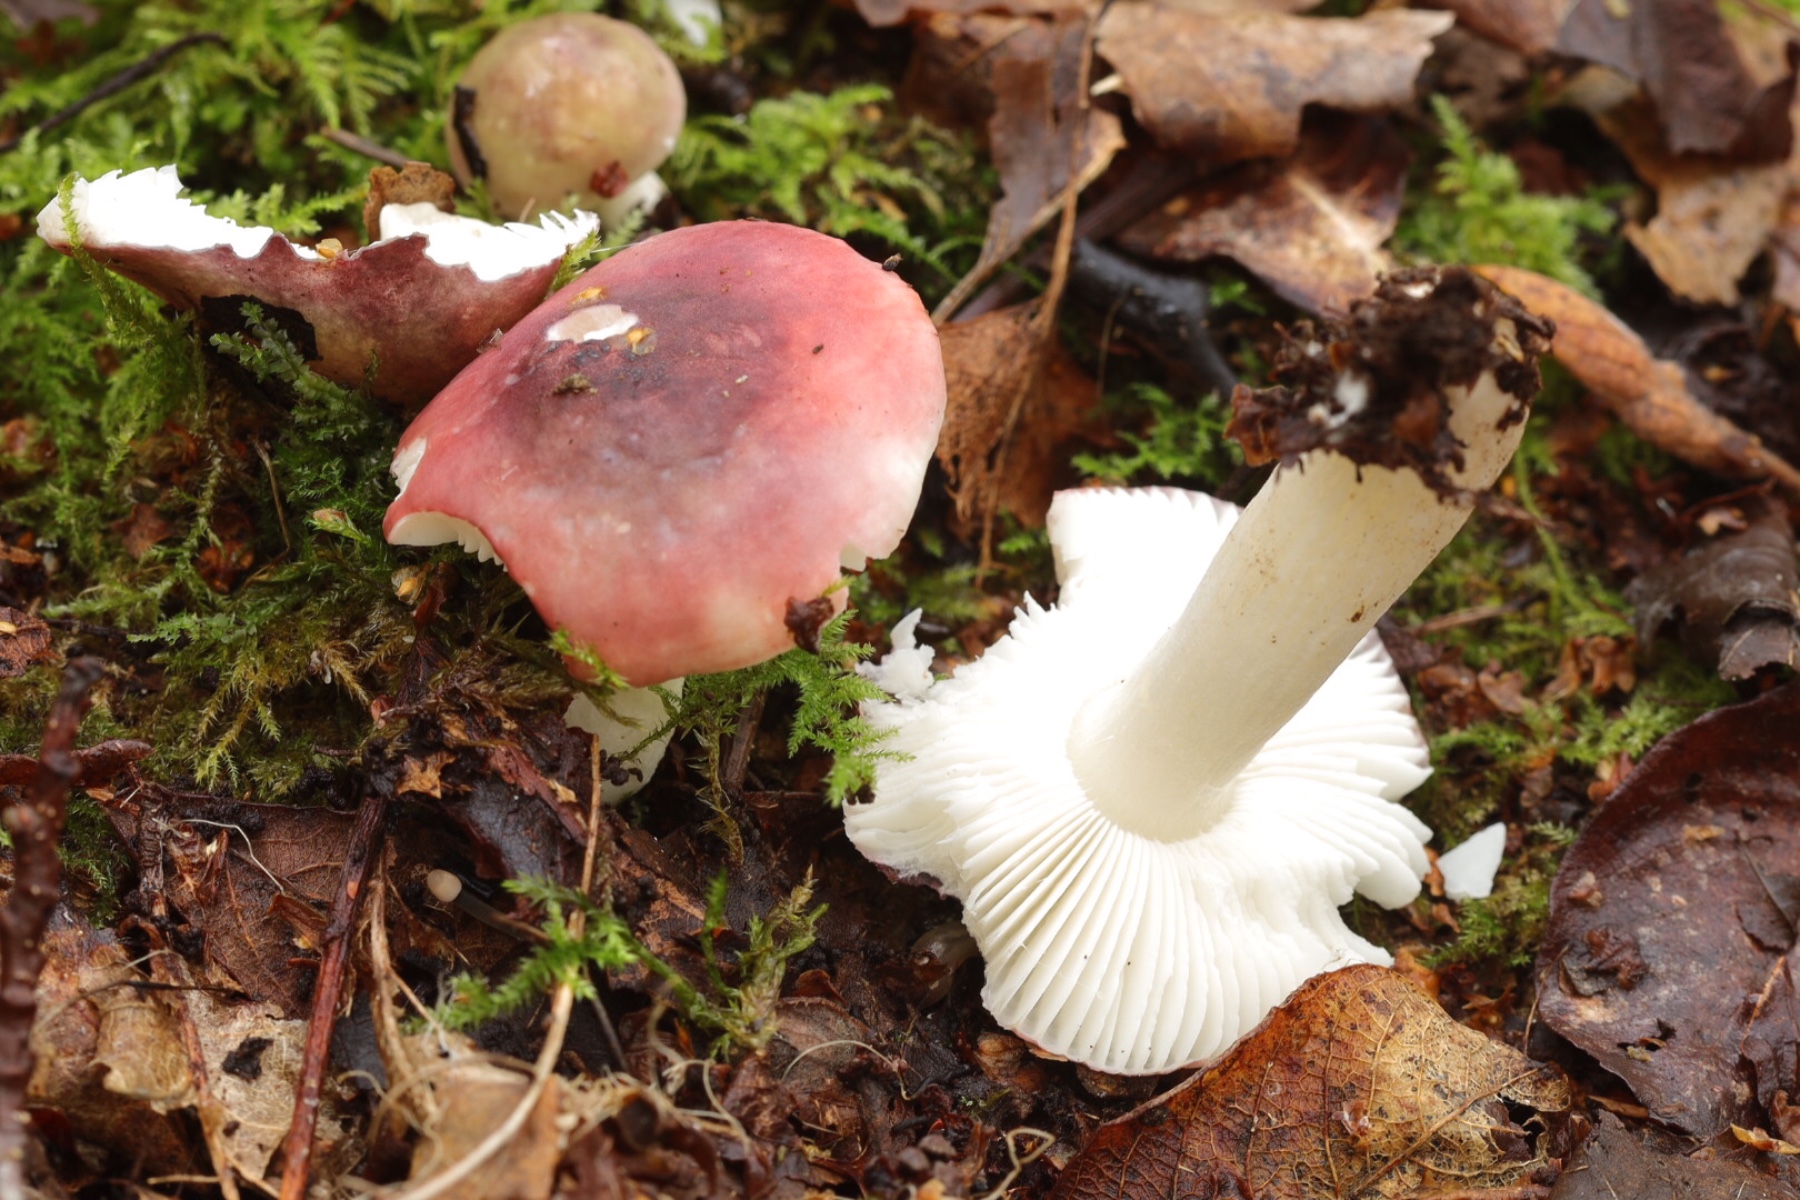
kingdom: Fungi
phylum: Basidiomycota
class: Agaricomycetes
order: Russulales
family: Russulaceae
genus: Russula
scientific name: Russula
